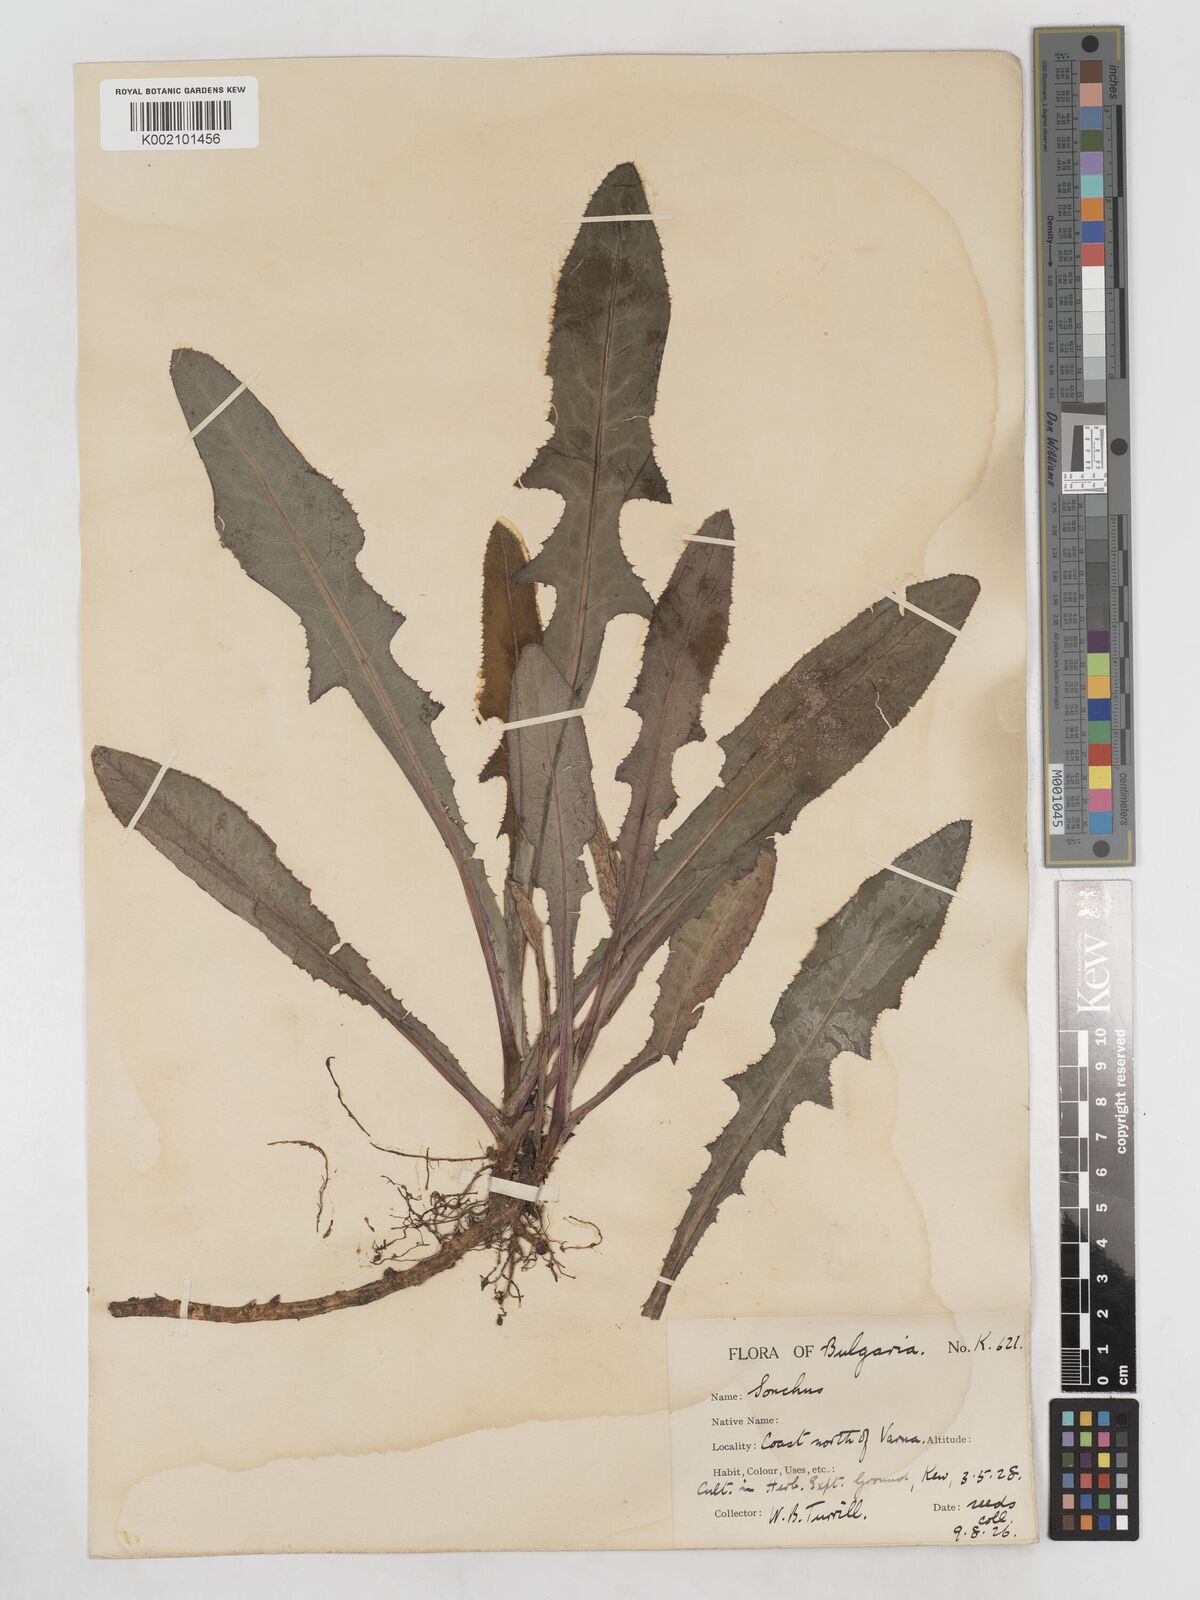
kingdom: Plantae
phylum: Tracheophyta
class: Magnoliopsida
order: Asterales
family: Asteraceae
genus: Sonchus
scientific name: Sonchus arvensis
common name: Perennial sow-thistle
